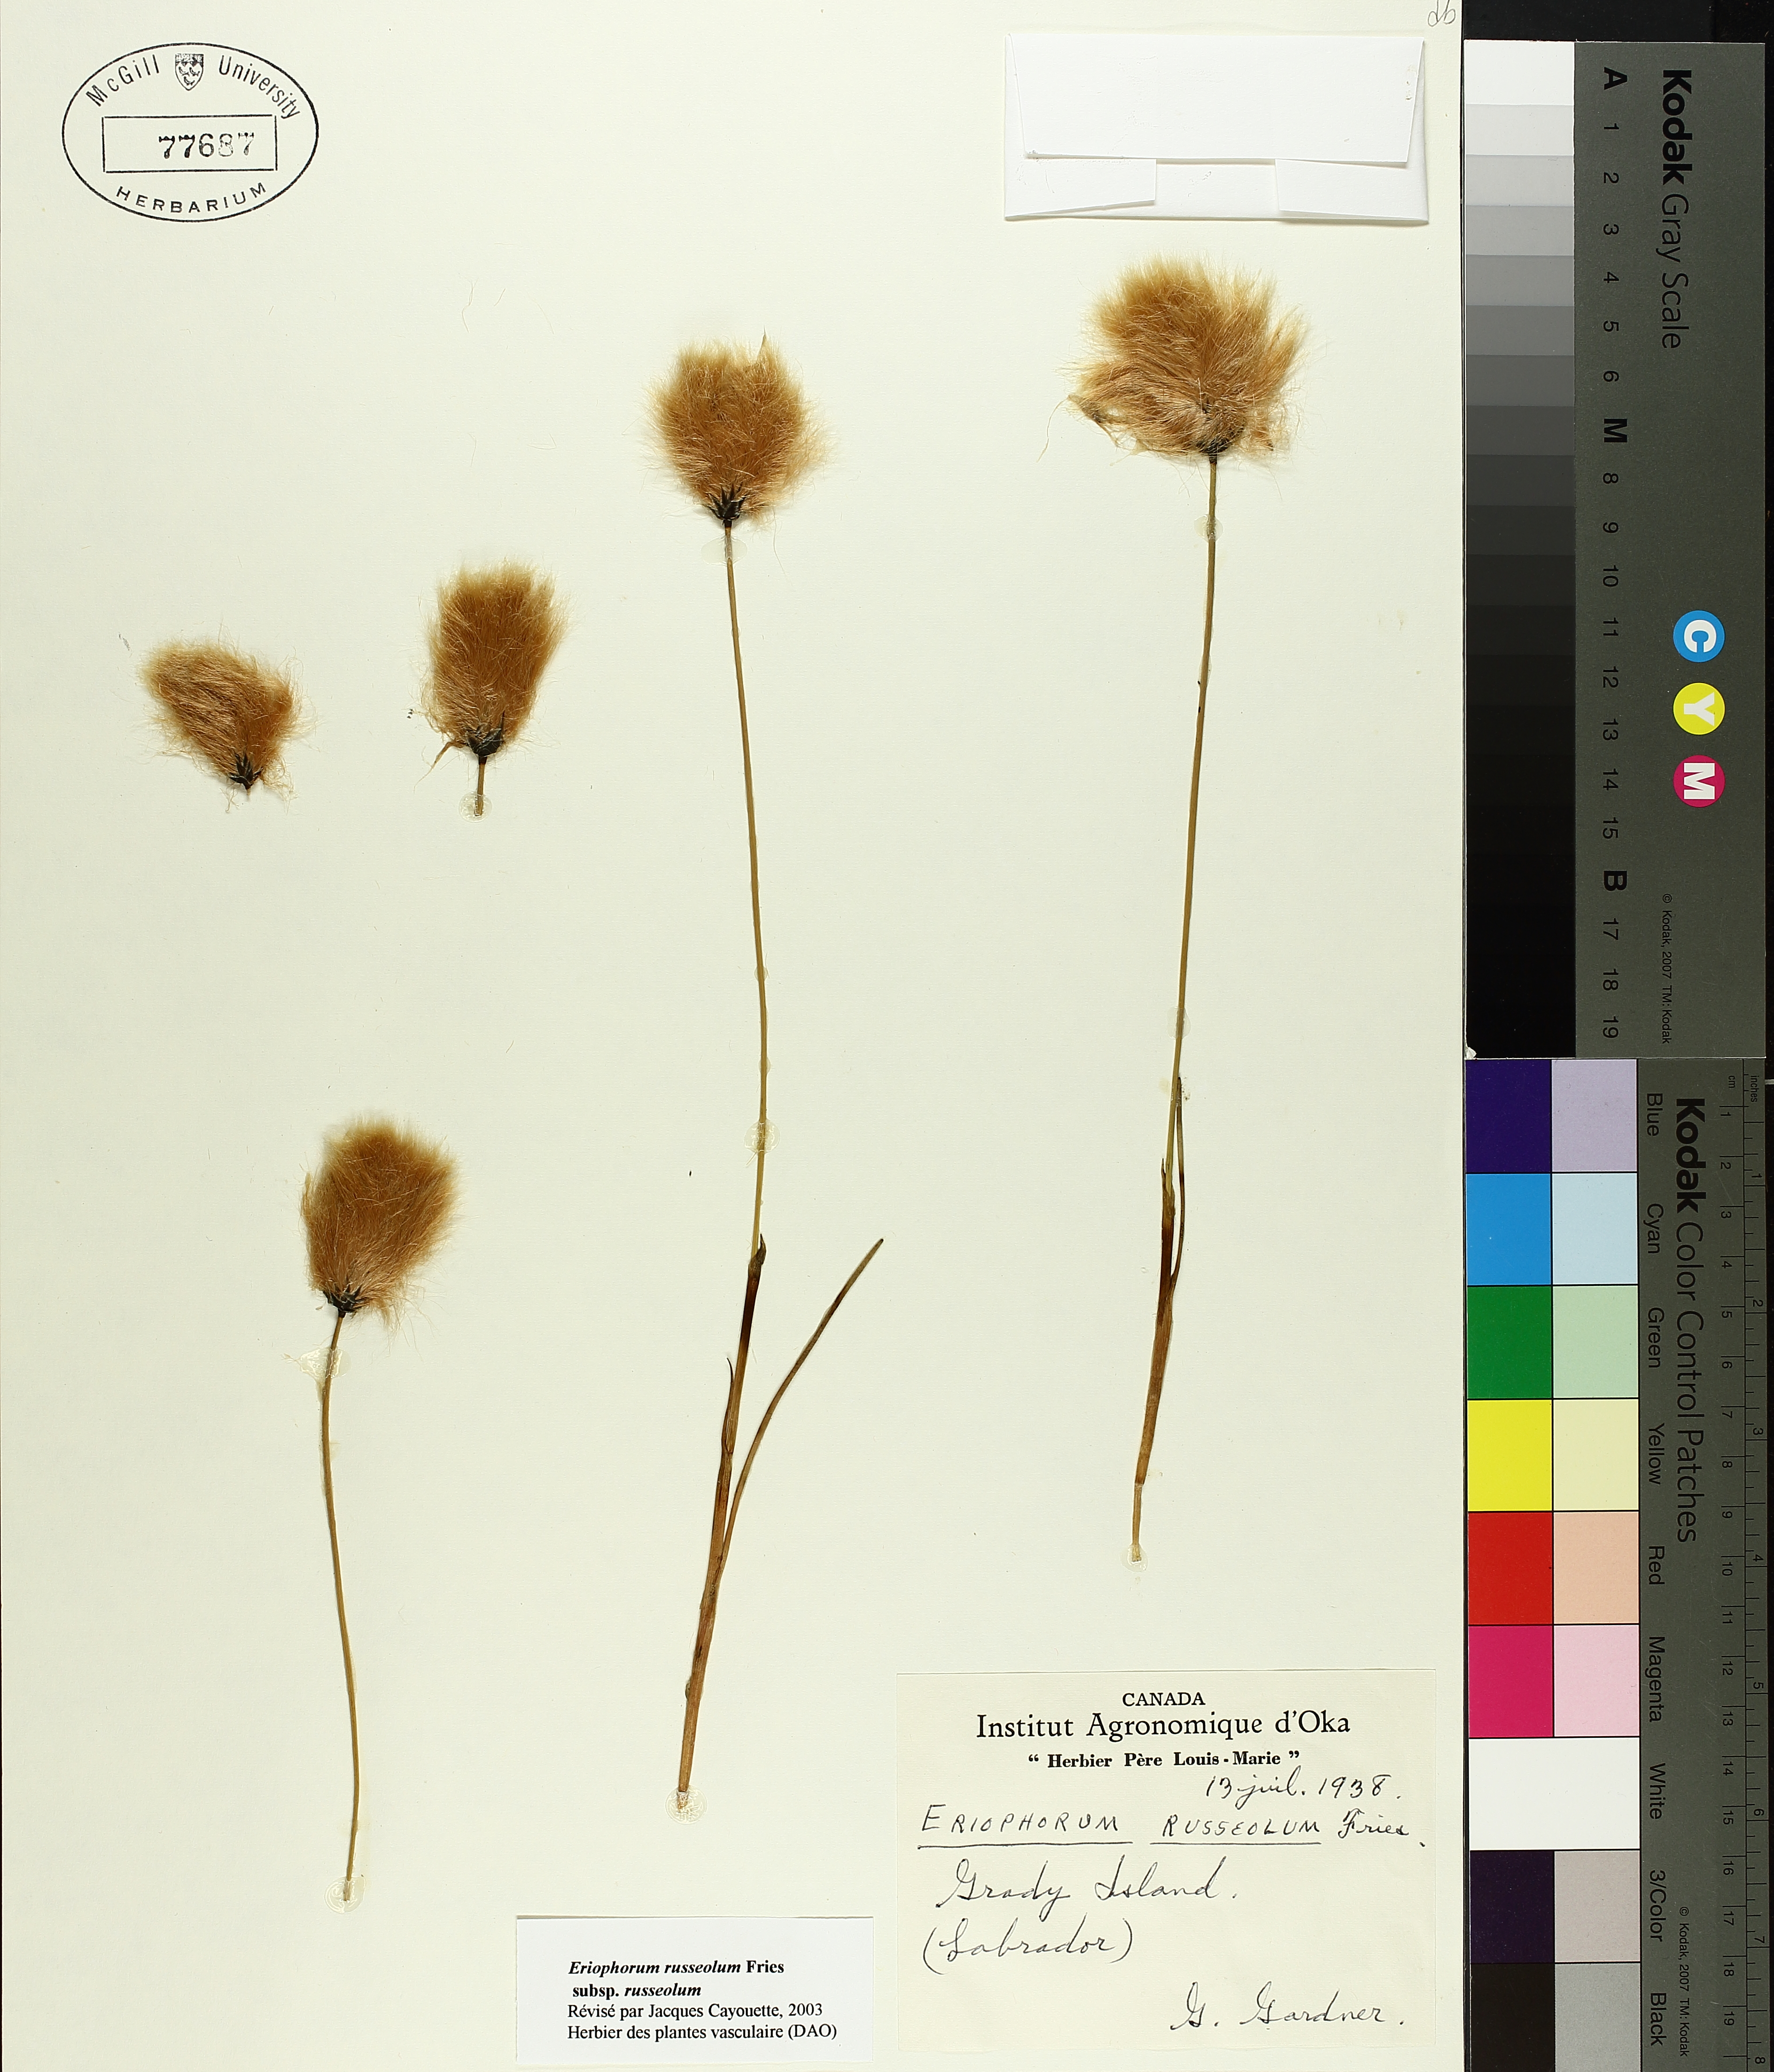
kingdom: Plantae
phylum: Tracheophyta
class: Liliopsida
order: Poales
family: Cyperaceae
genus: Eriophorum
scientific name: Eriophorum chamissonis
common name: Chamisso's cottongrass
